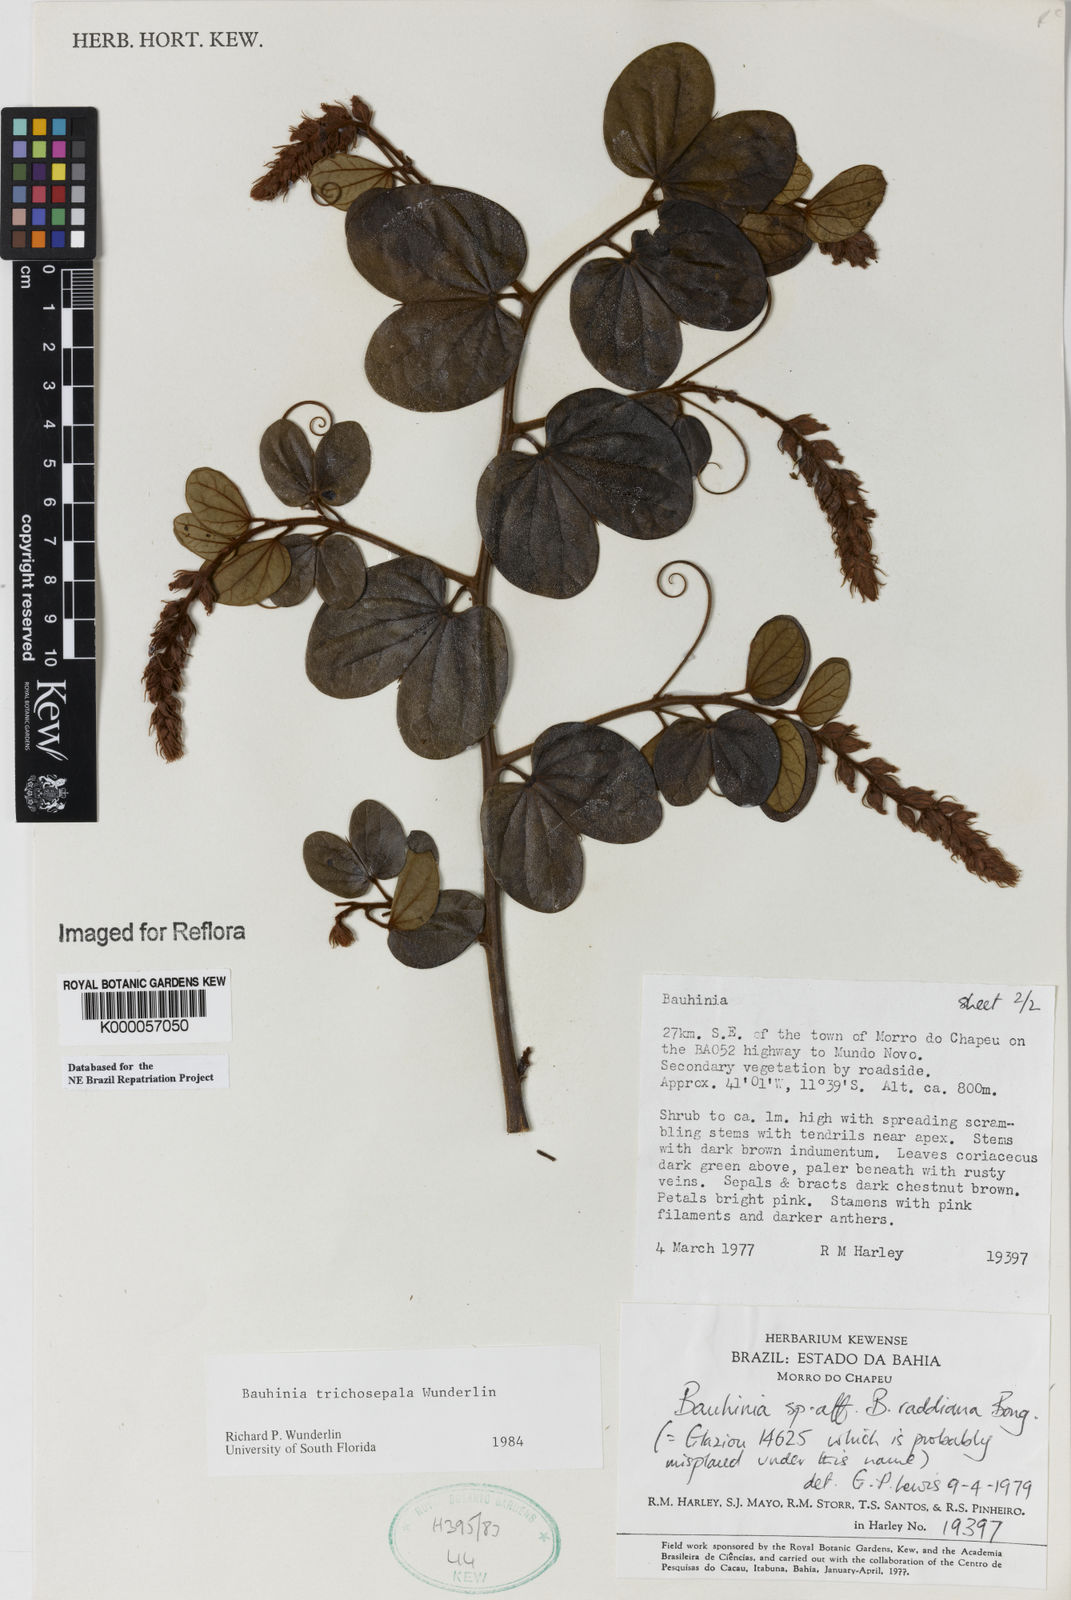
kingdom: Plantae
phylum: Tracheophyta
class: Magnoliopsida
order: Fabales
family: Fabaceae
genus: Schnella
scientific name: Schnella trichosepala
